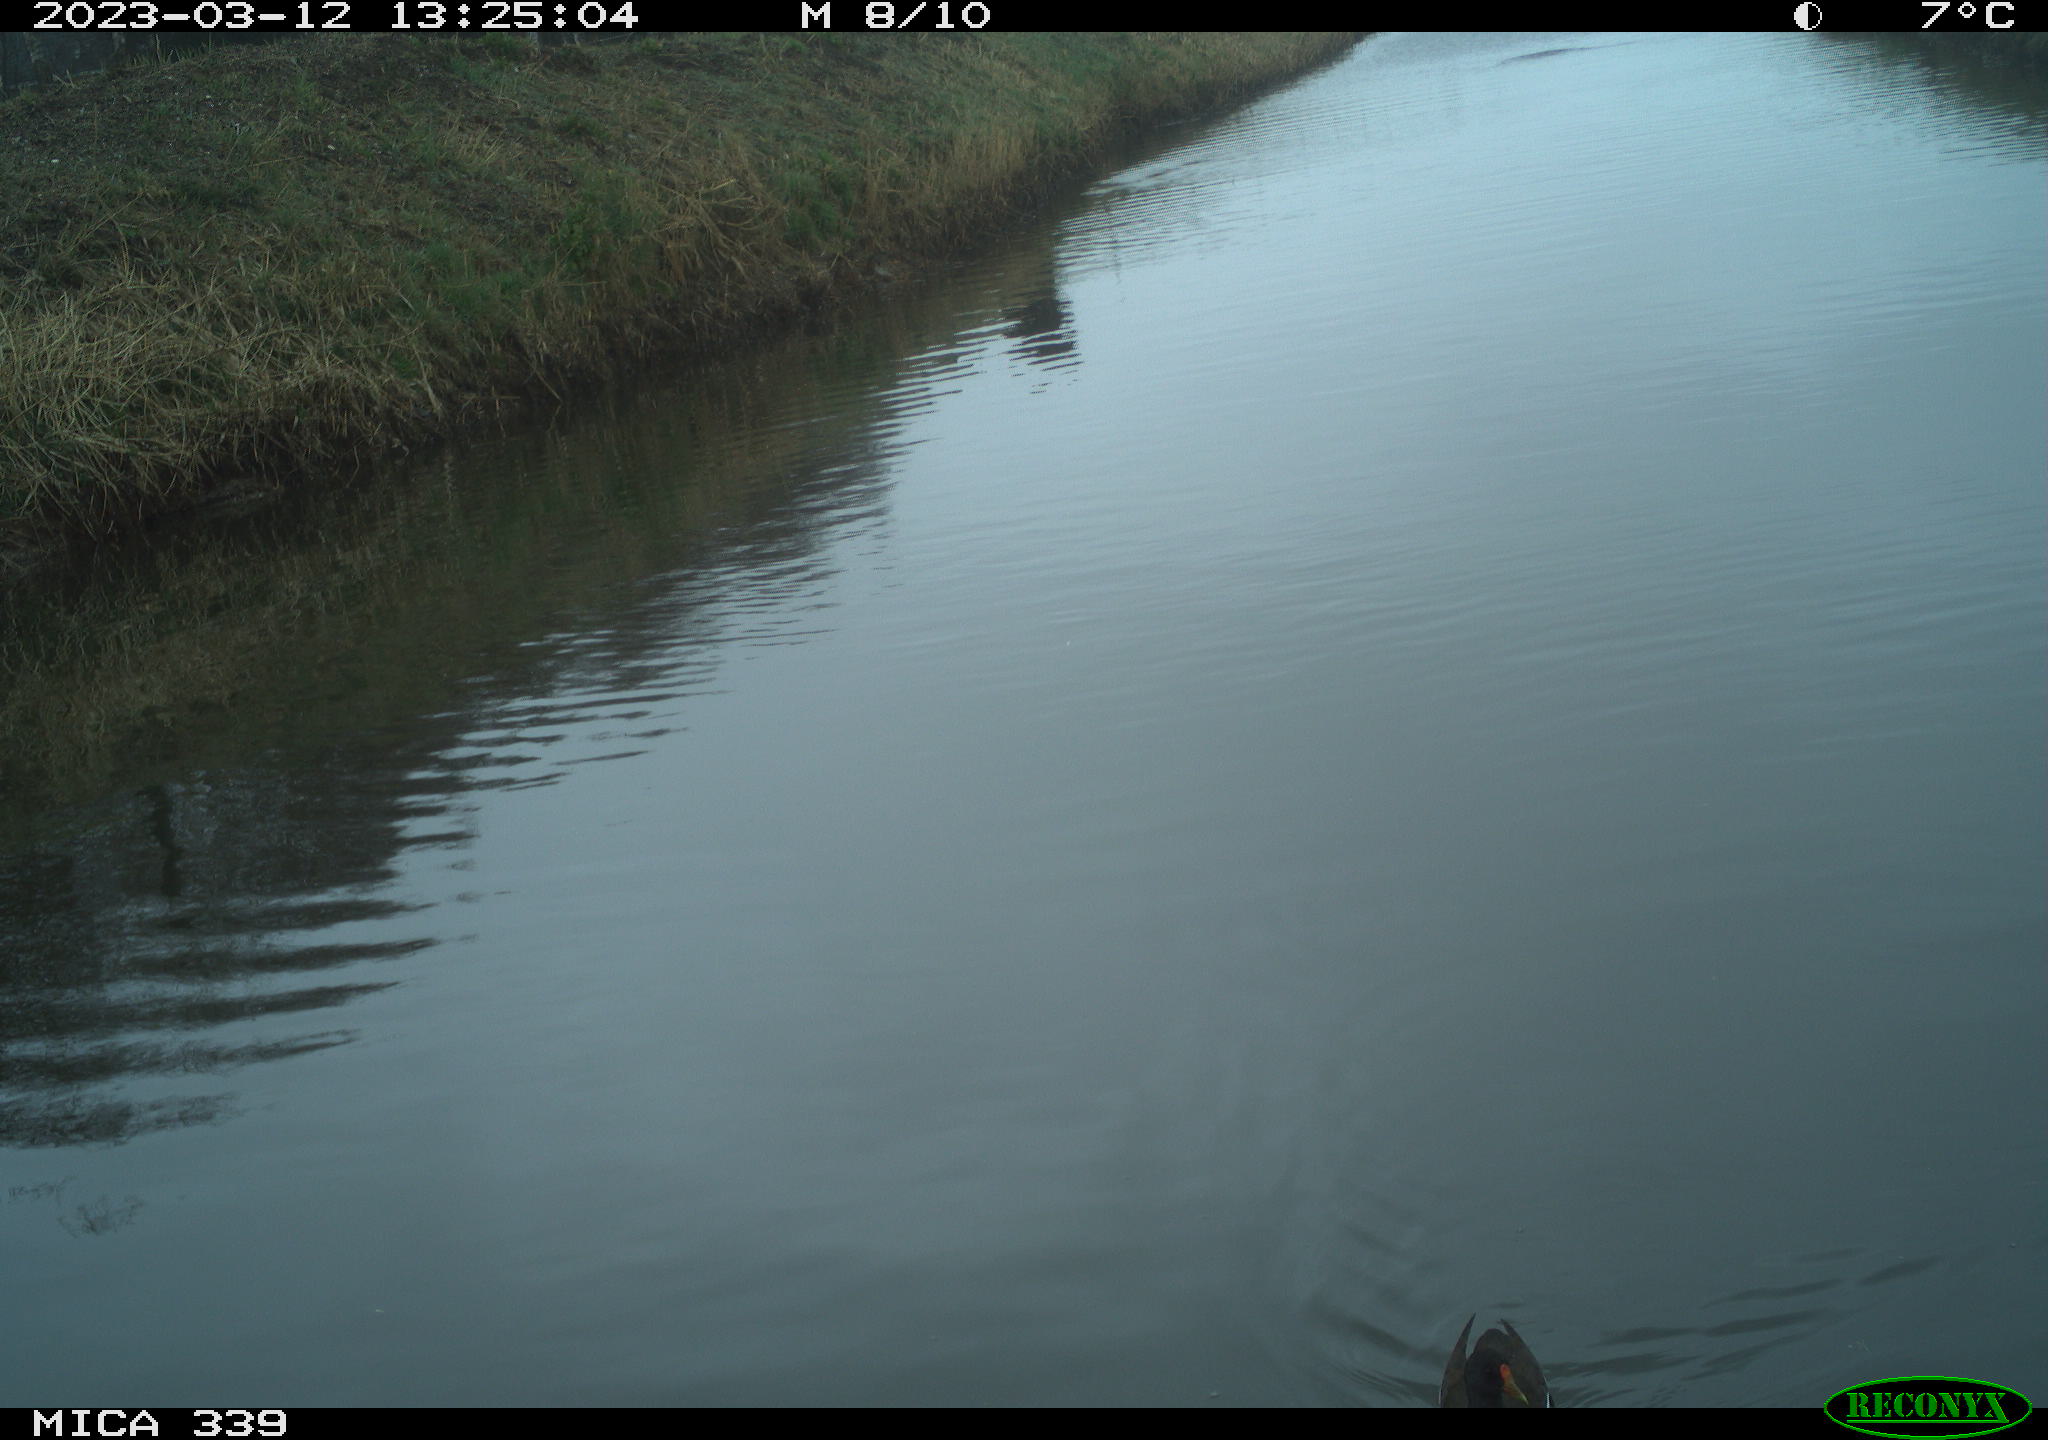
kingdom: Animalia
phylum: Chordata
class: Aves
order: Gruiformes
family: Rallidae
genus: Gallinula
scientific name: Gallinula chloropus
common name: Common moorhen
